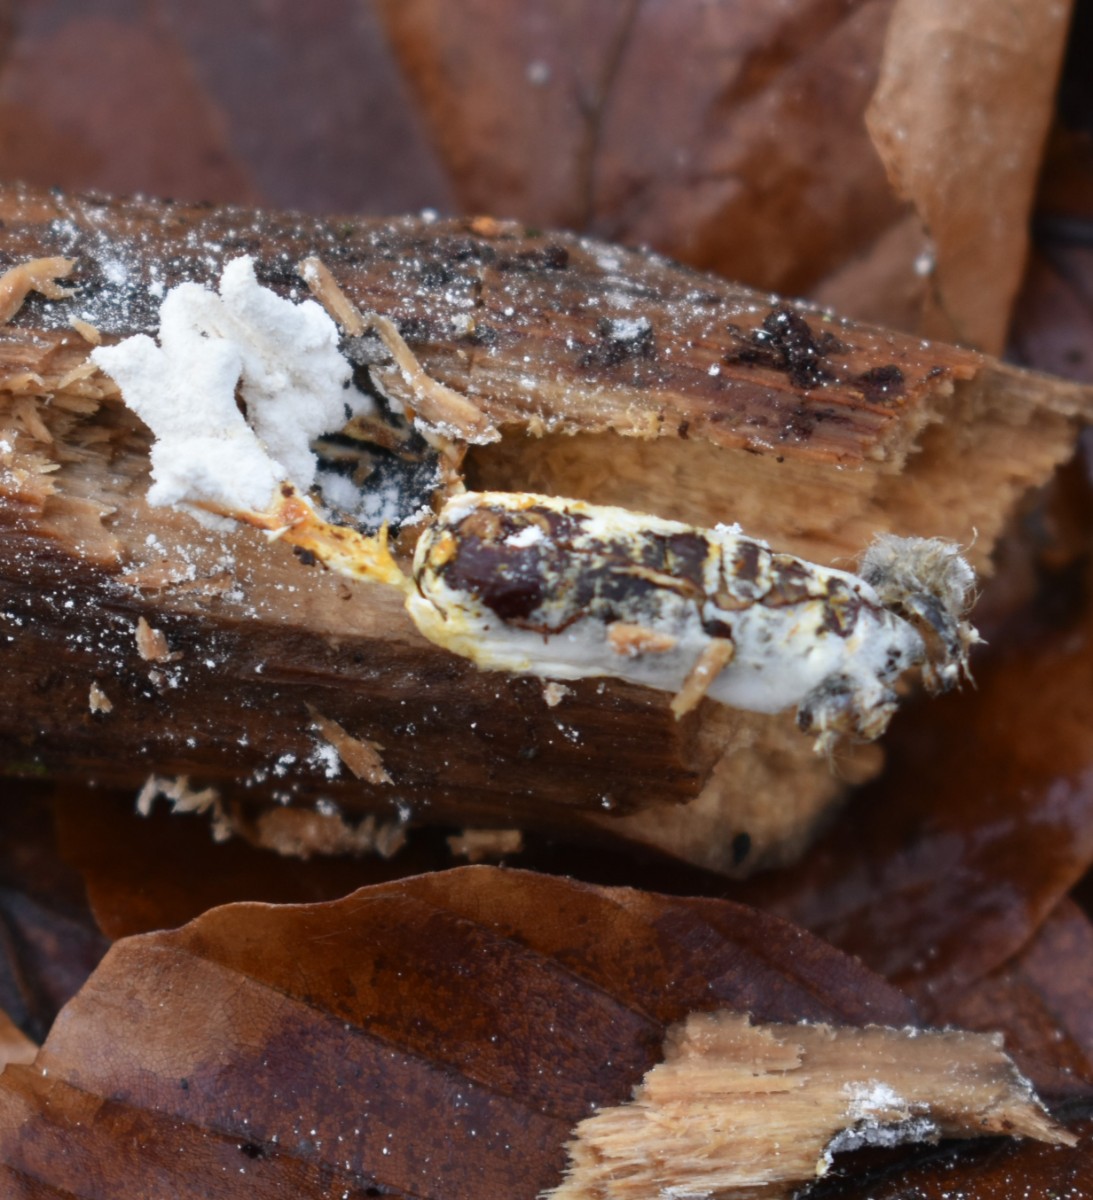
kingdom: Fungi
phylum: Ascomycota
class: Sordariomycetes
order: Hypocreales
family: Cordycipitaceae
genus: Cordyceps
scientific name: Cordyceps farinosa
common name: melet snyltekølle
